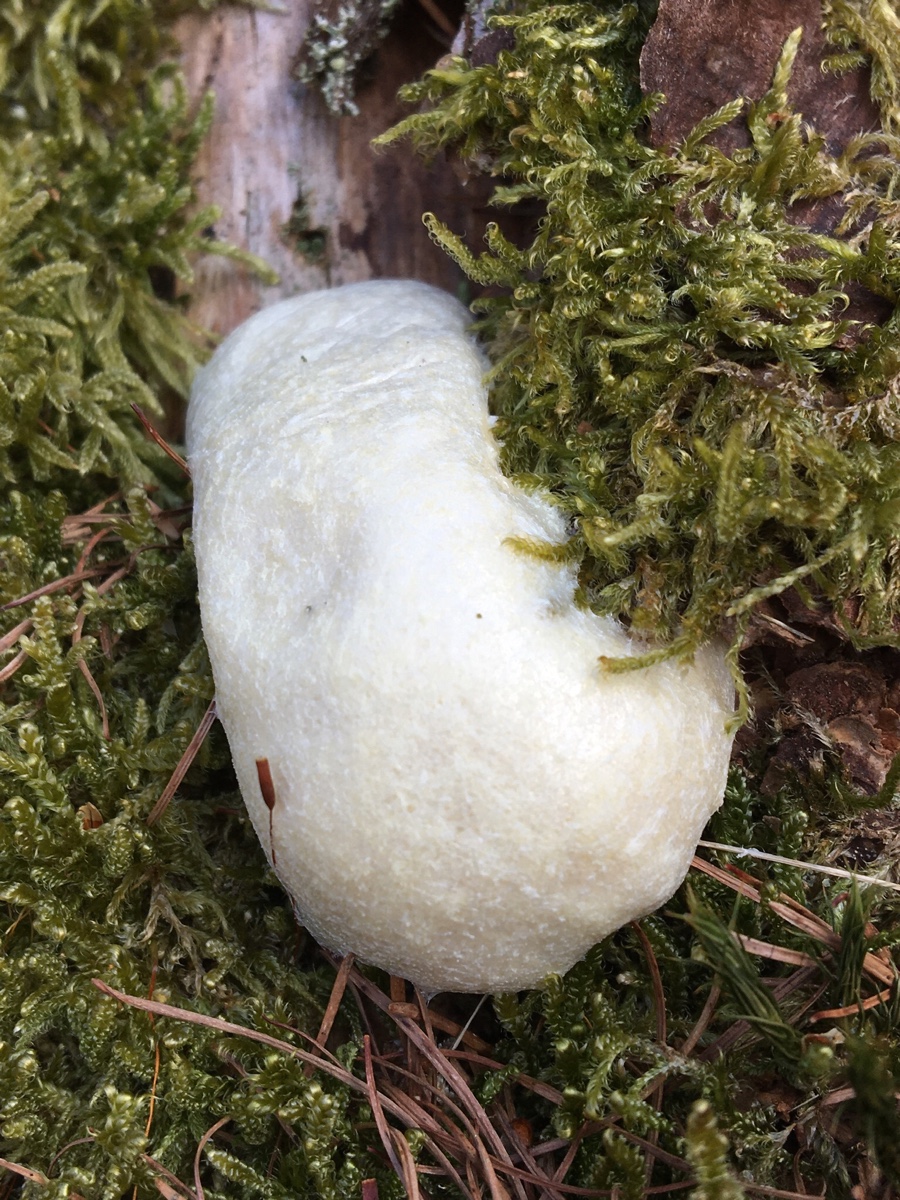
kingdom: Protozoa
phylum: Mycetozoa
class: Myxomycetes
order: Cribrariales
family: Tubiferaceae
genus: Reticularia
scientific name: Reticularia lycoperdon
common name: skinnende støvpude
